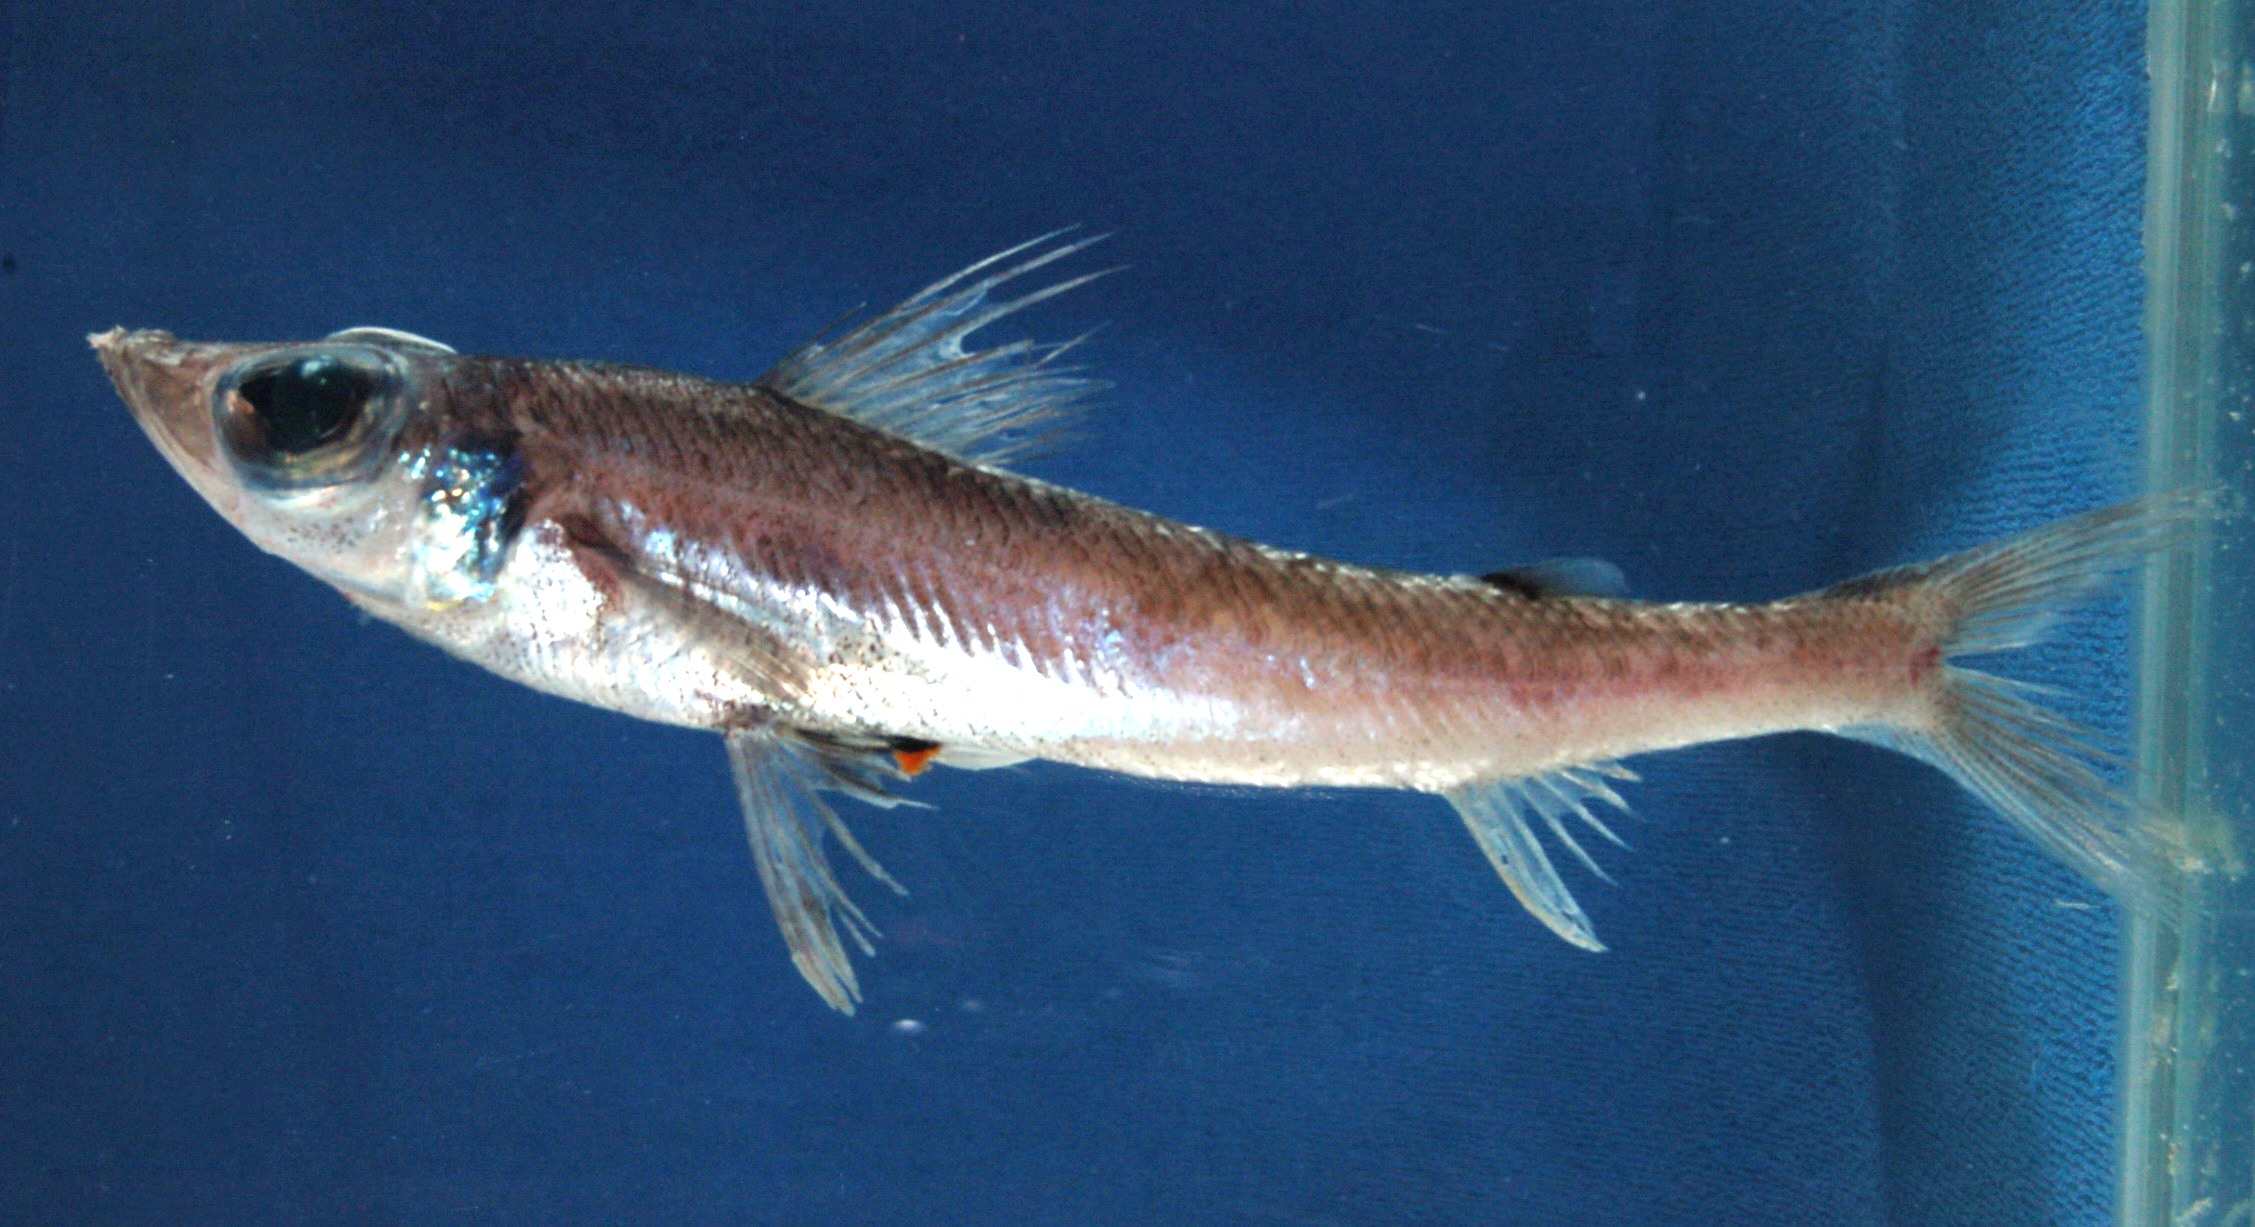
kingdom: Animalia
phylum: Chordata
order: Aulopiformes
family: Chlorophthalmidae
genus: Chlorophthalmus
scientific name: Chlorophthalmus punctatus
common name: Spotted greeneye
